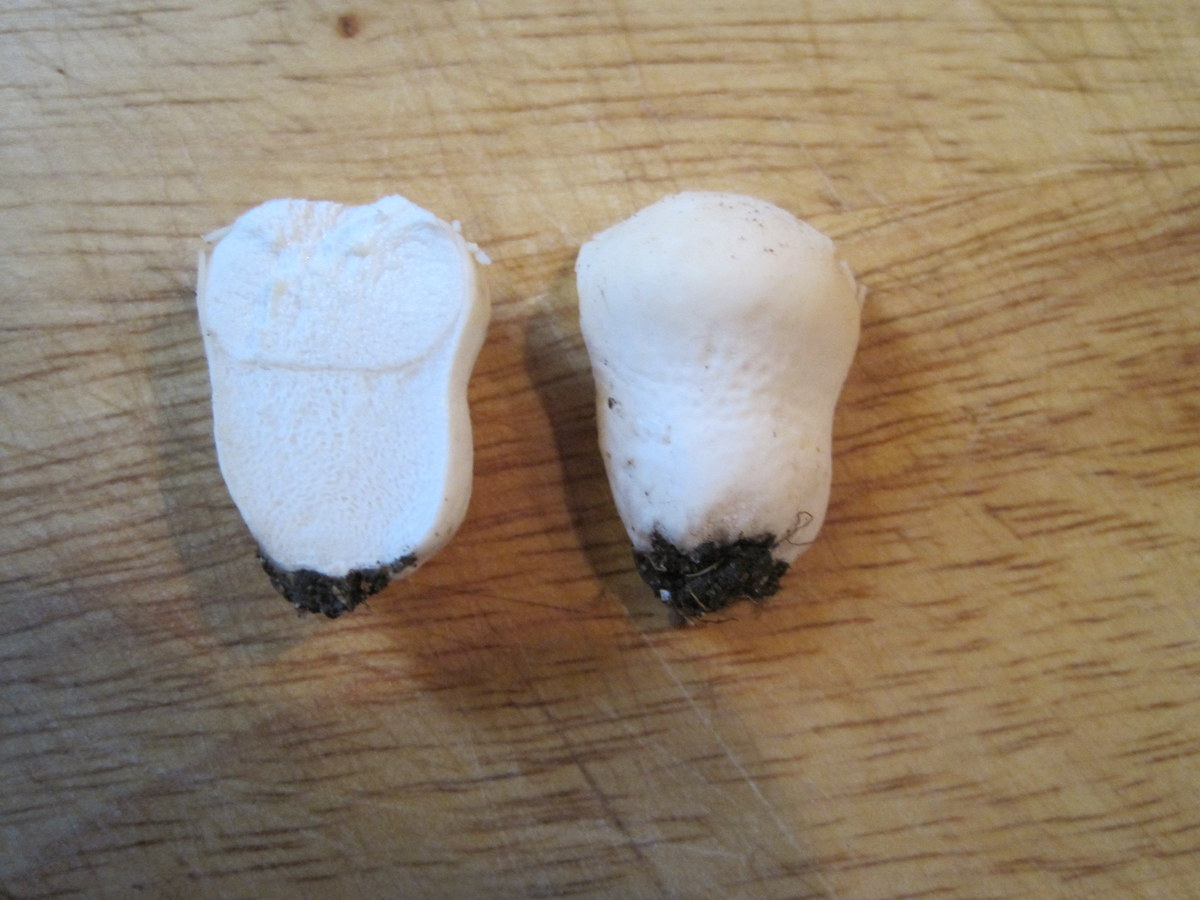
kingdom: Fungi
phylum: Basidiomycota
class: Agaricomycetes
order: Agaricales
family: Lycoperdaceae
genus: Lycoperdon
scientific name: Lycoperdon pratense
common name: flad støvbold
